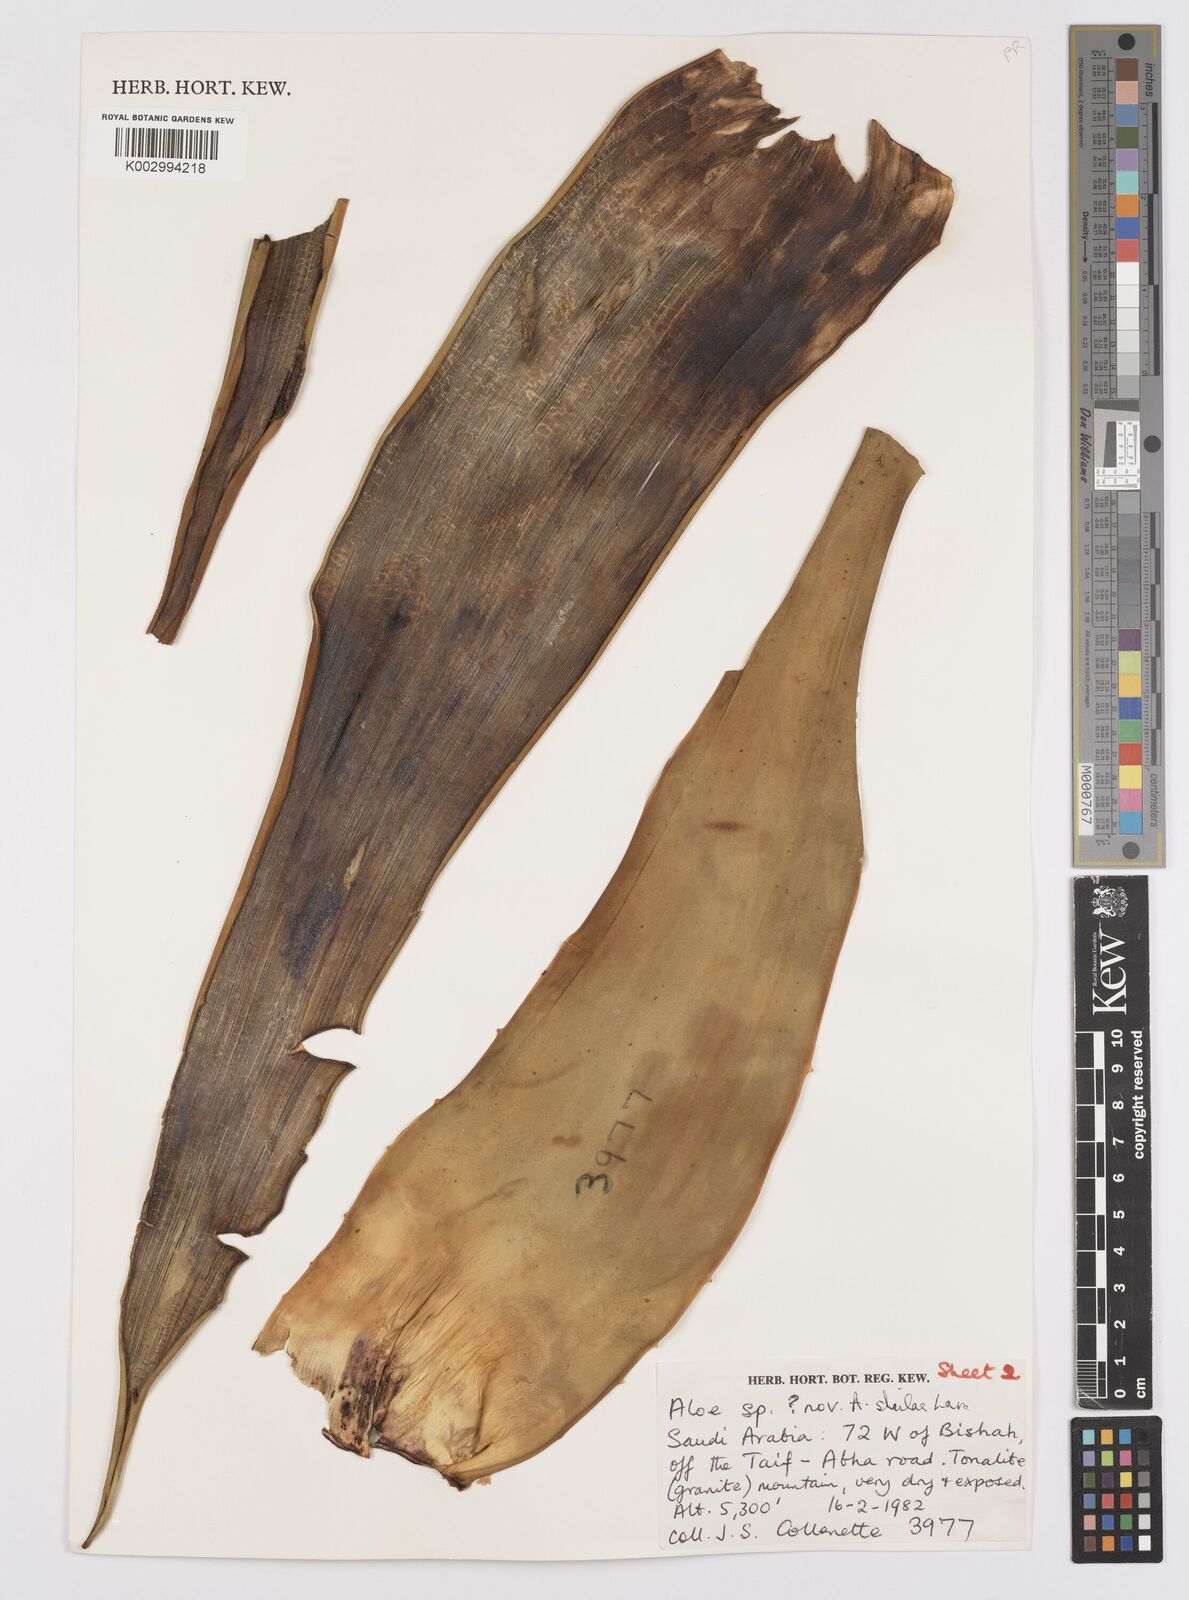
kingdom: Plantae
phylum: Tracheophyta
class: Liliopsida
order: Asparagales
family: Asphodelaceae
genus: Aloe
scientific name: Aloe sheilae
